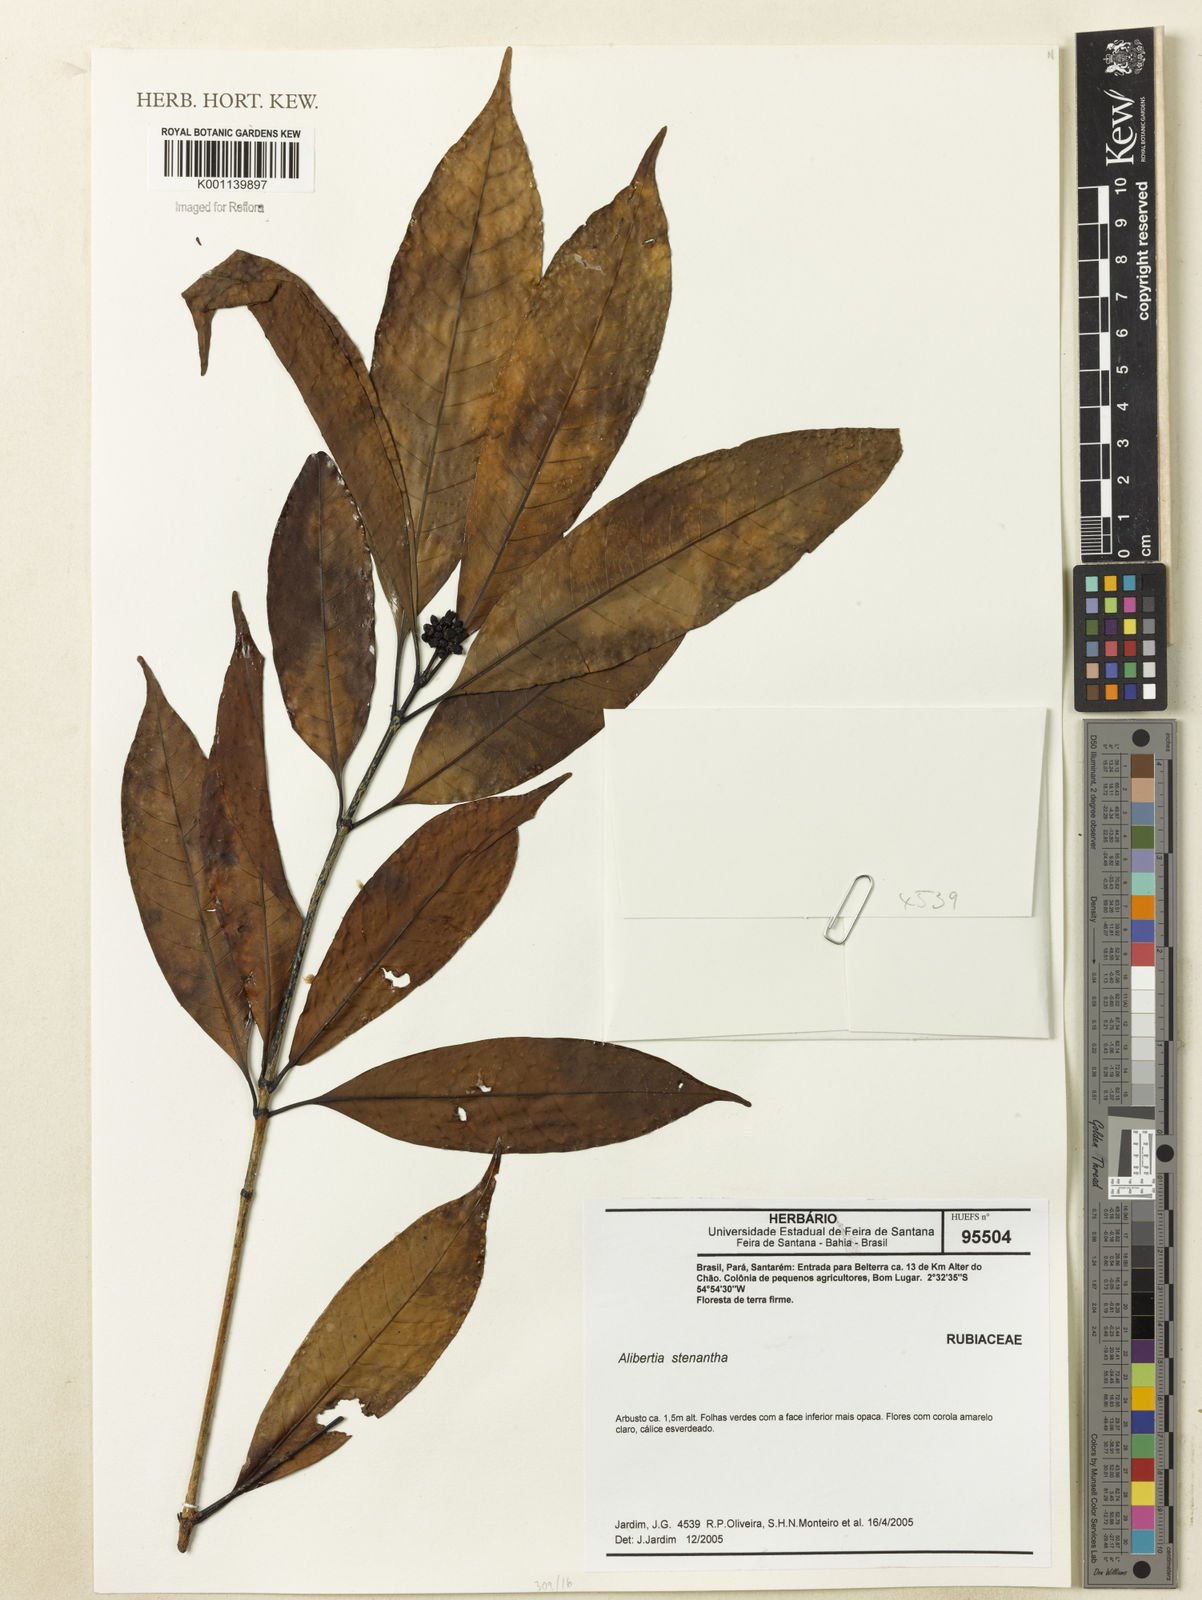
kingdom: Plantae
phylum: Tracheophyta
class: Magnoliopsida
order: Gentianales
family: Rubiaceae
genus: Alibertia
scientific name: Alibertia bertierifolia
